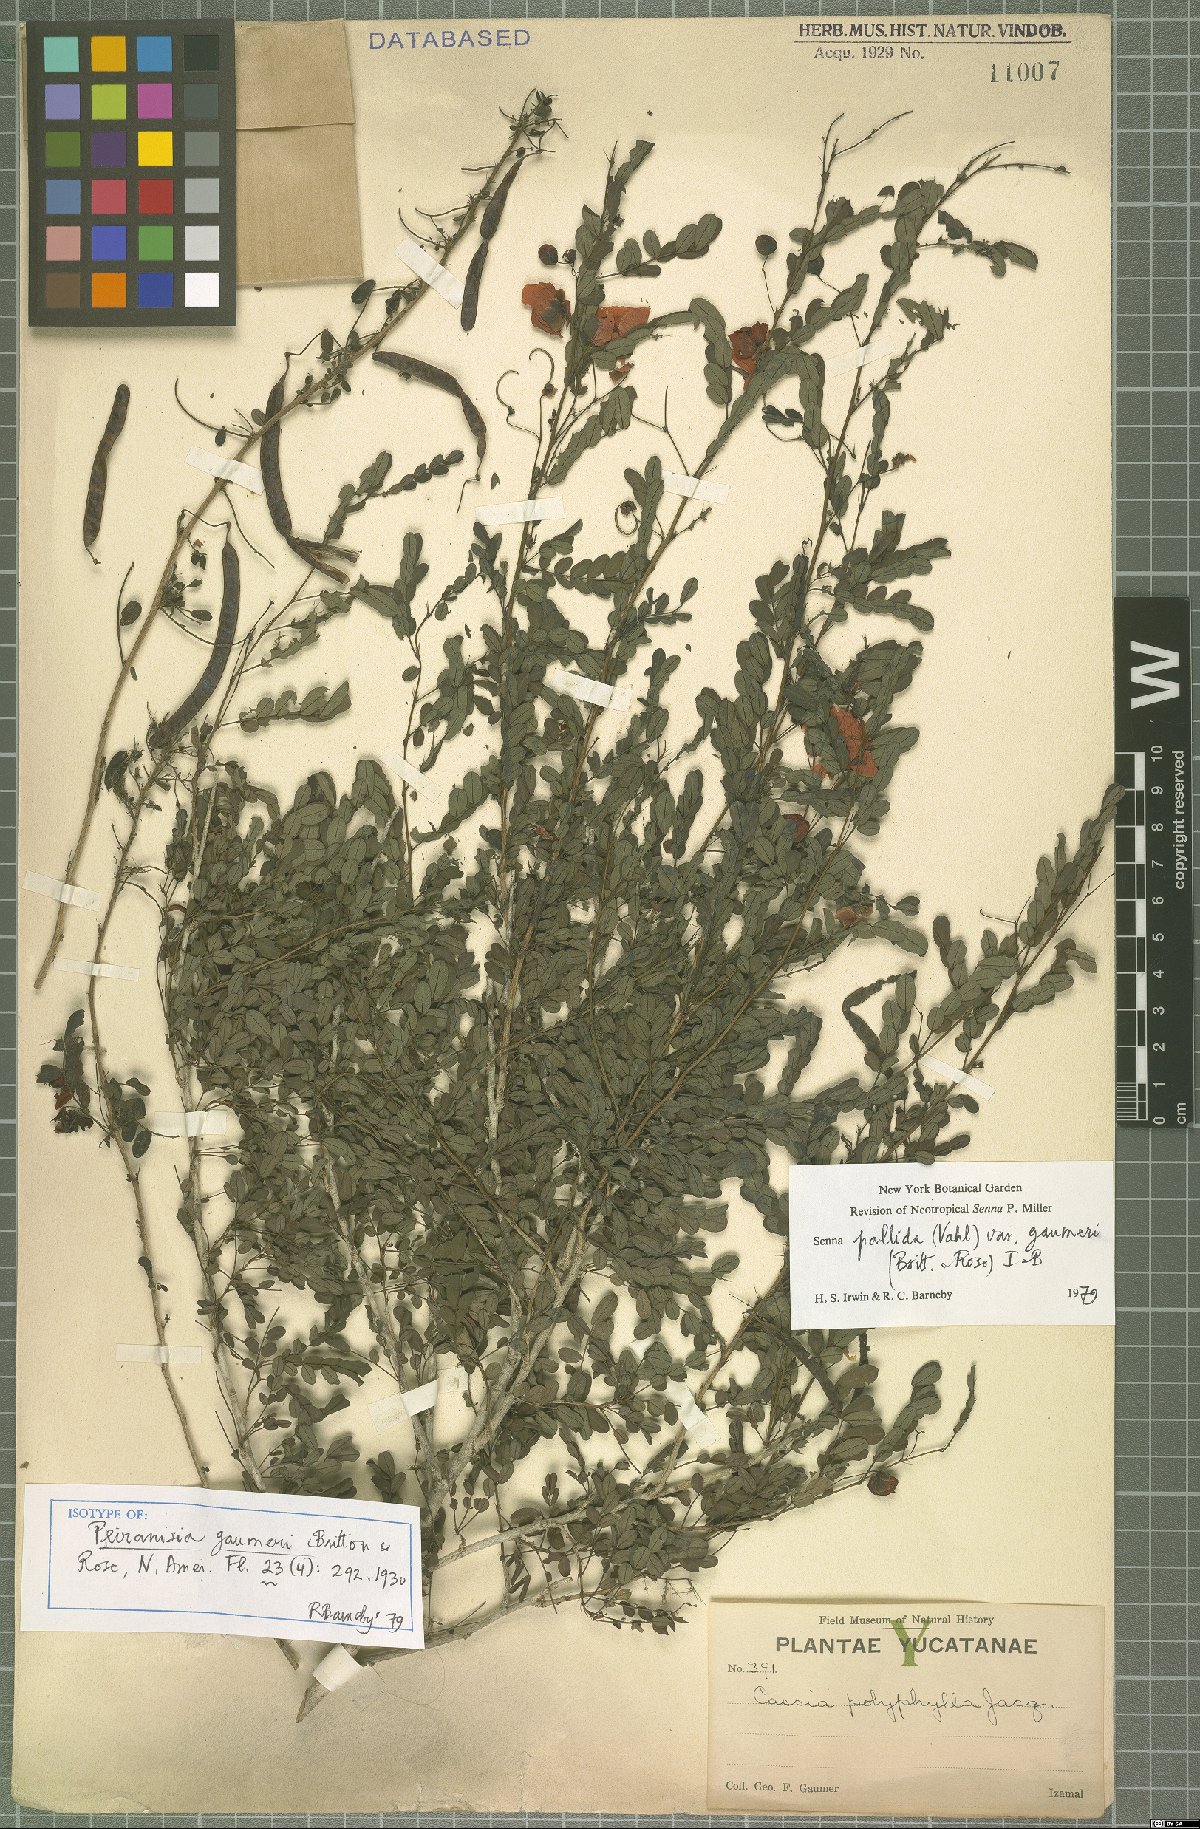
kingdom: Plantae
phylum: Tracheophyta
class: Magnoliopsida
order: Fabales
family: Fabaceae
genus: Senna
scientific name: Senna pallida
